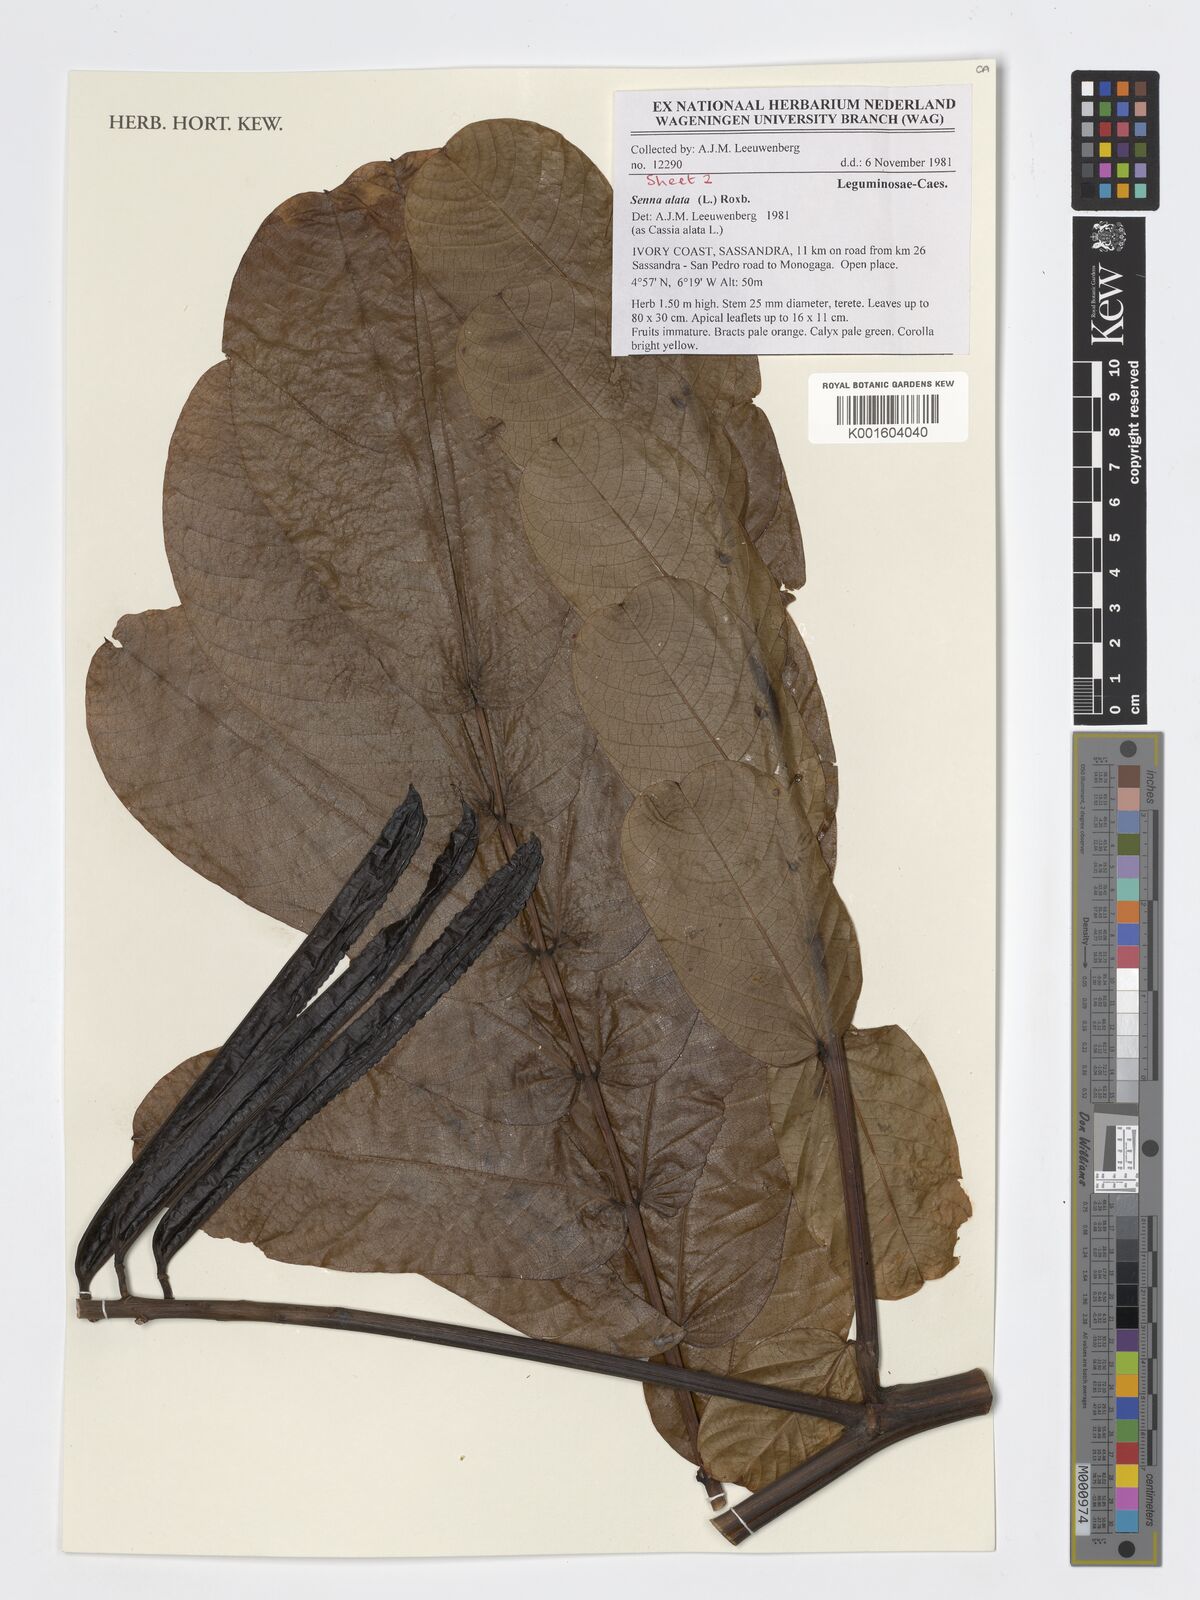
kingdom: Plantae
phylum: Tracheophyta
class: Magnoliopsida
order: Fabales
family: Fabaceae
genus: Senna
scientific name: Senna alata
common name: Emperor's candlesticks
